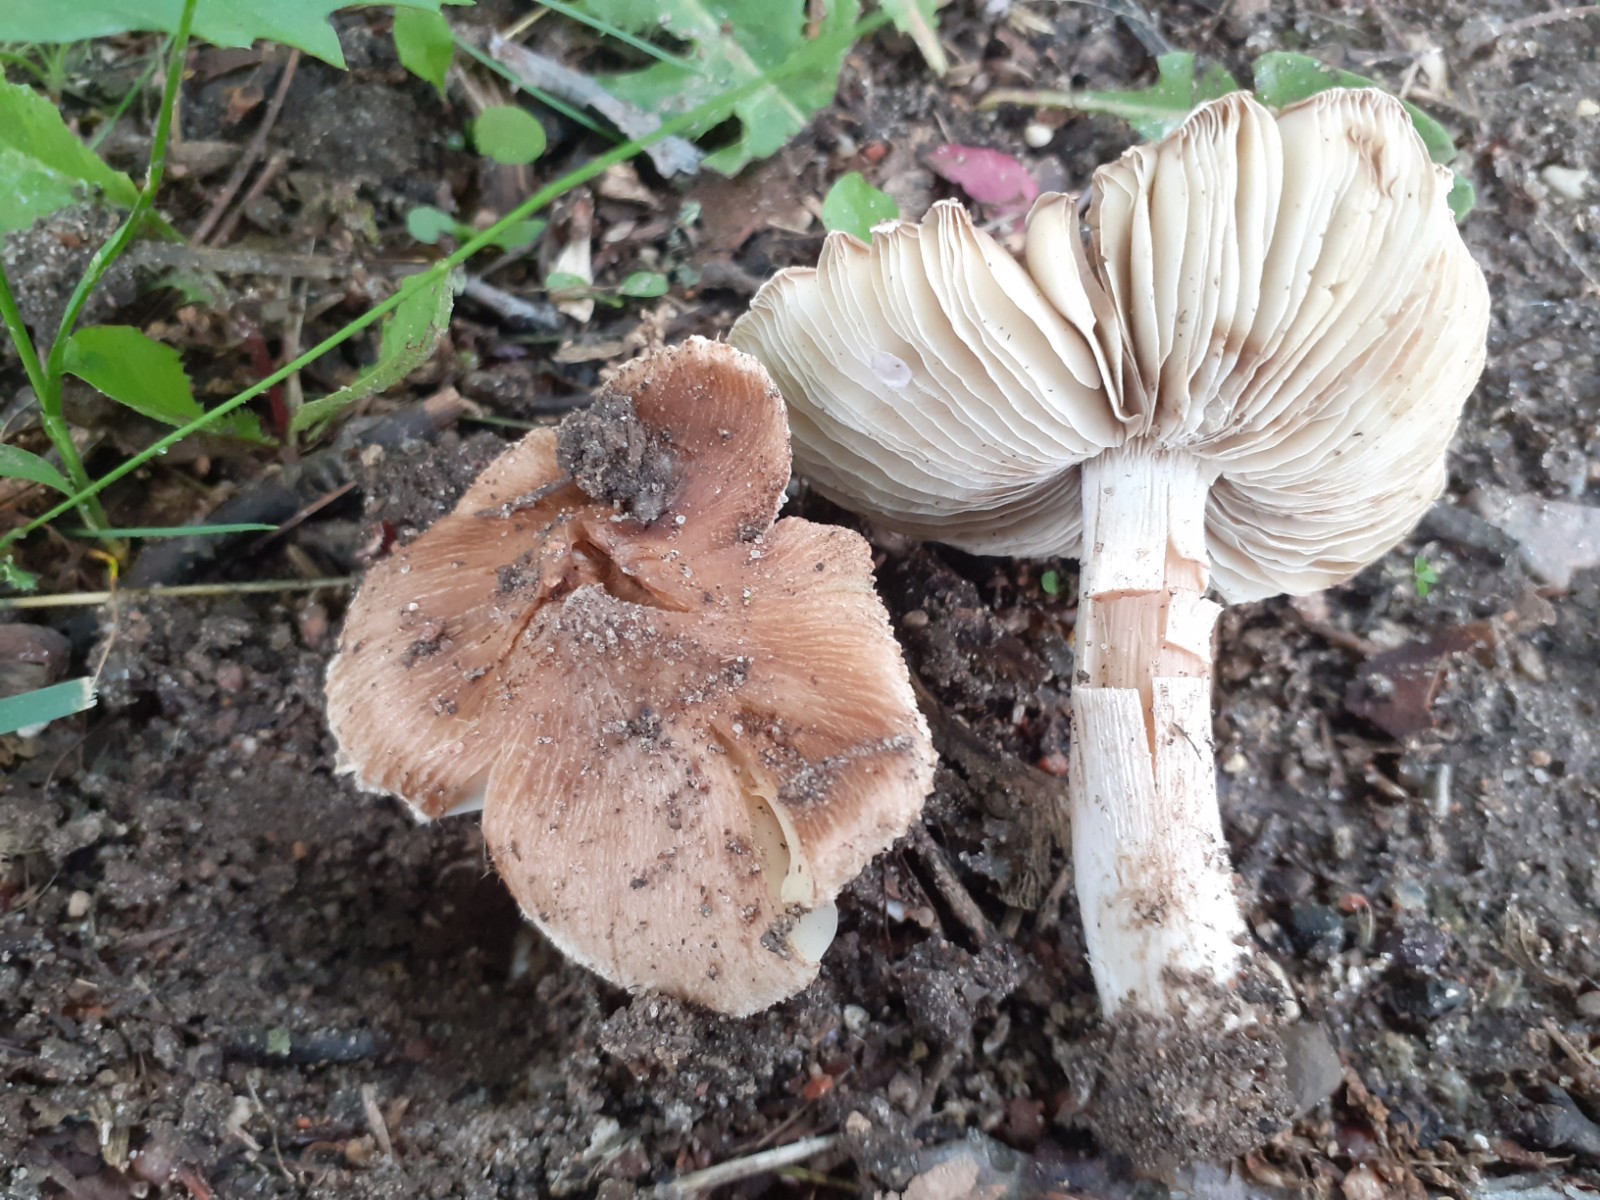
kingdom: Fungi
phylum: Basidiomycota
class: Agaricomycetes
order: Agaricales
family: Inocybaceae
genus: Pseudosperma
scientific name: Pseudosperma umbrinellum
